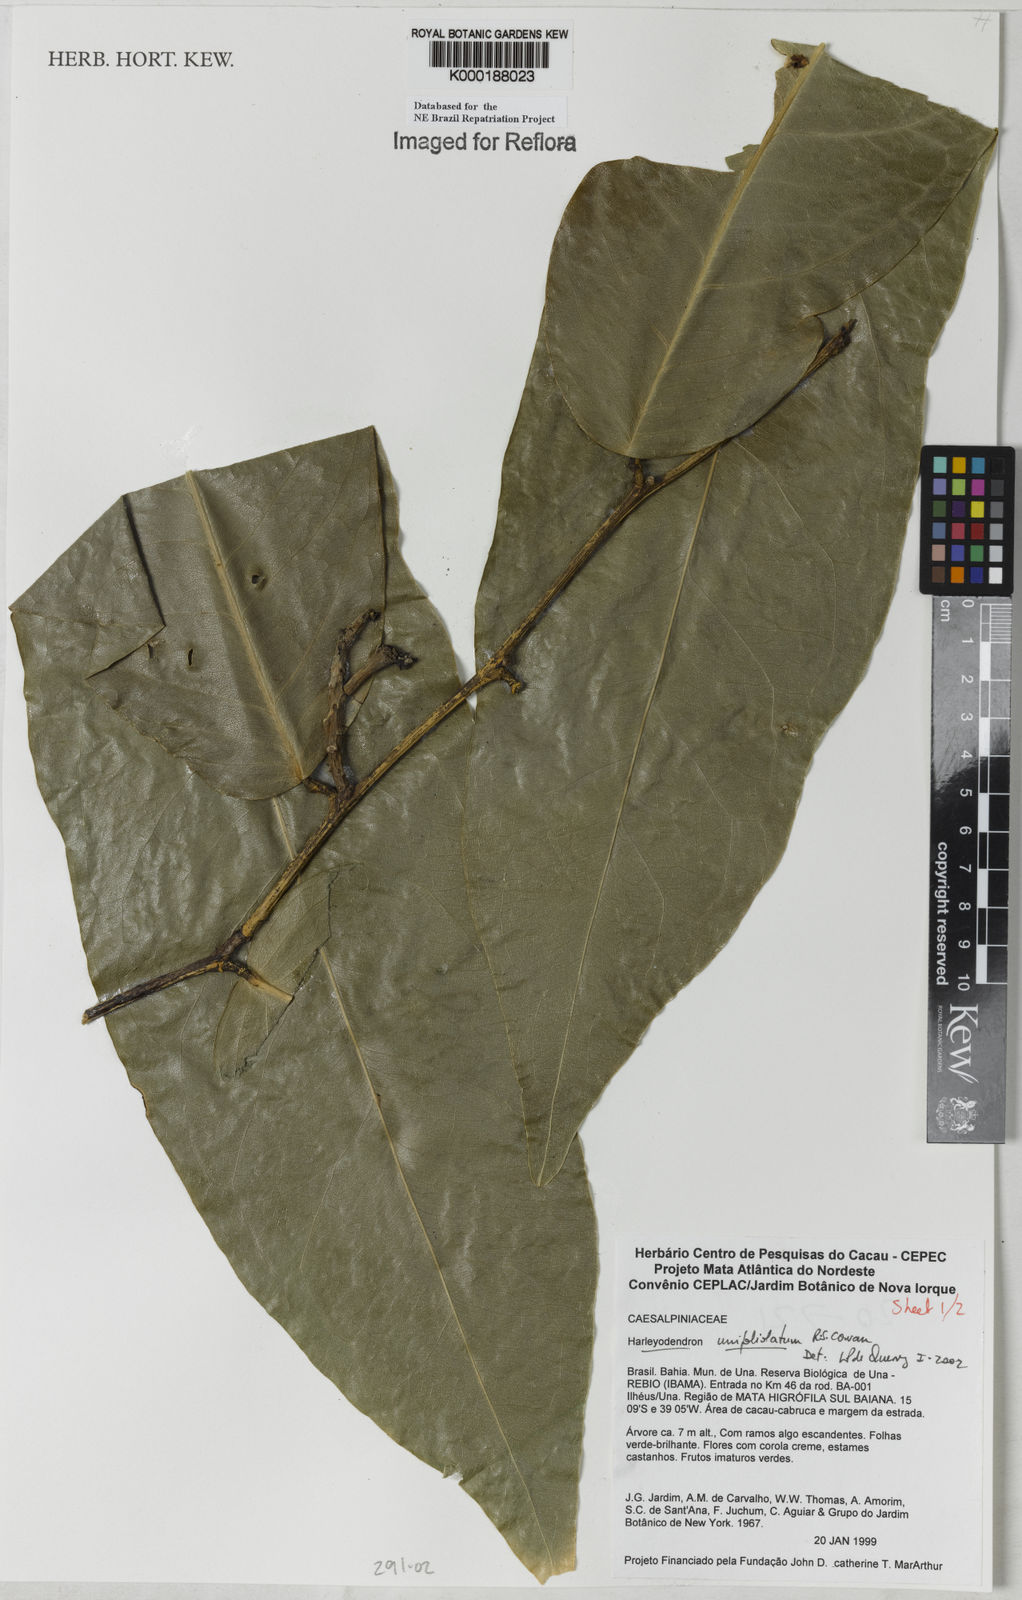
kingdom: Plantae
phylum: Tracheophyta
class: Magnoliopsida
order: Fabales
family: Fabaceae
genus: Harleyodendron
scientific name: Harleyodendron unifoliolatum
